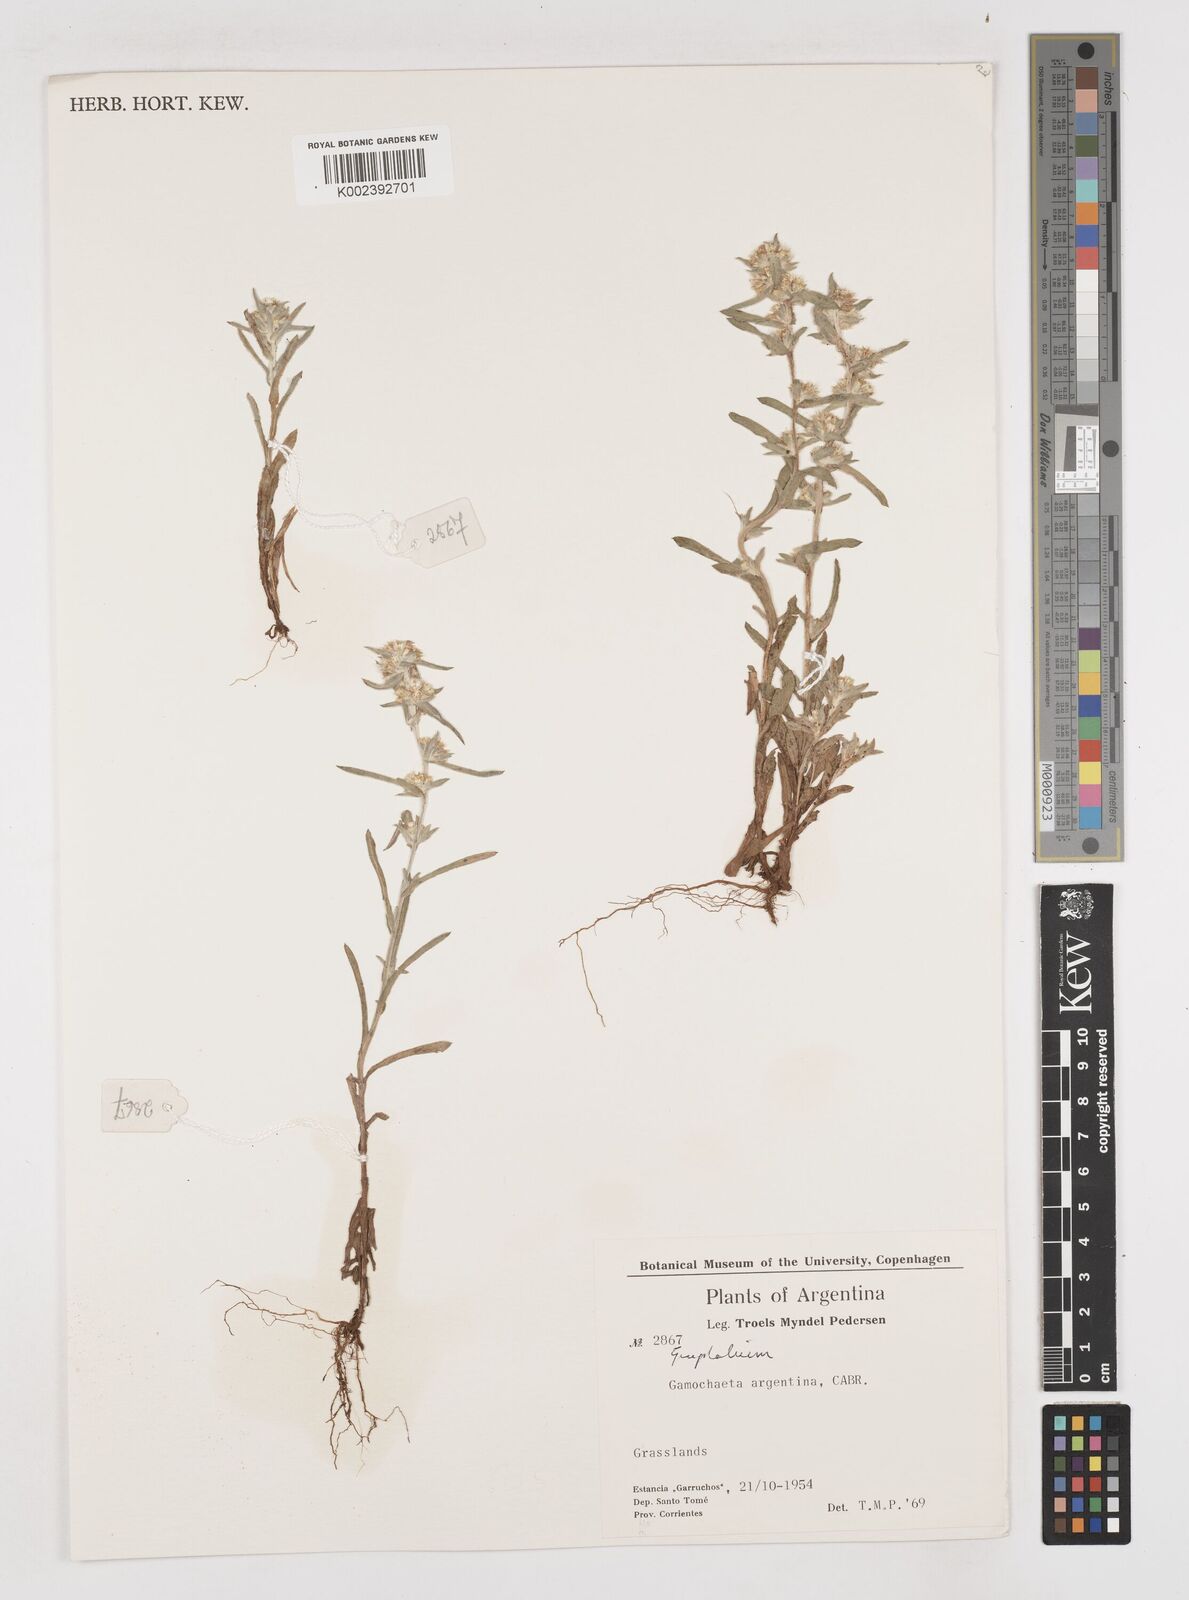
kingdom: Plantae
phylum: Tracheophyta
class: Magnoliopsida
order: Asterales
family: Asteraceae
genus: Gnaphalium
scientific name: Gnaphalium
